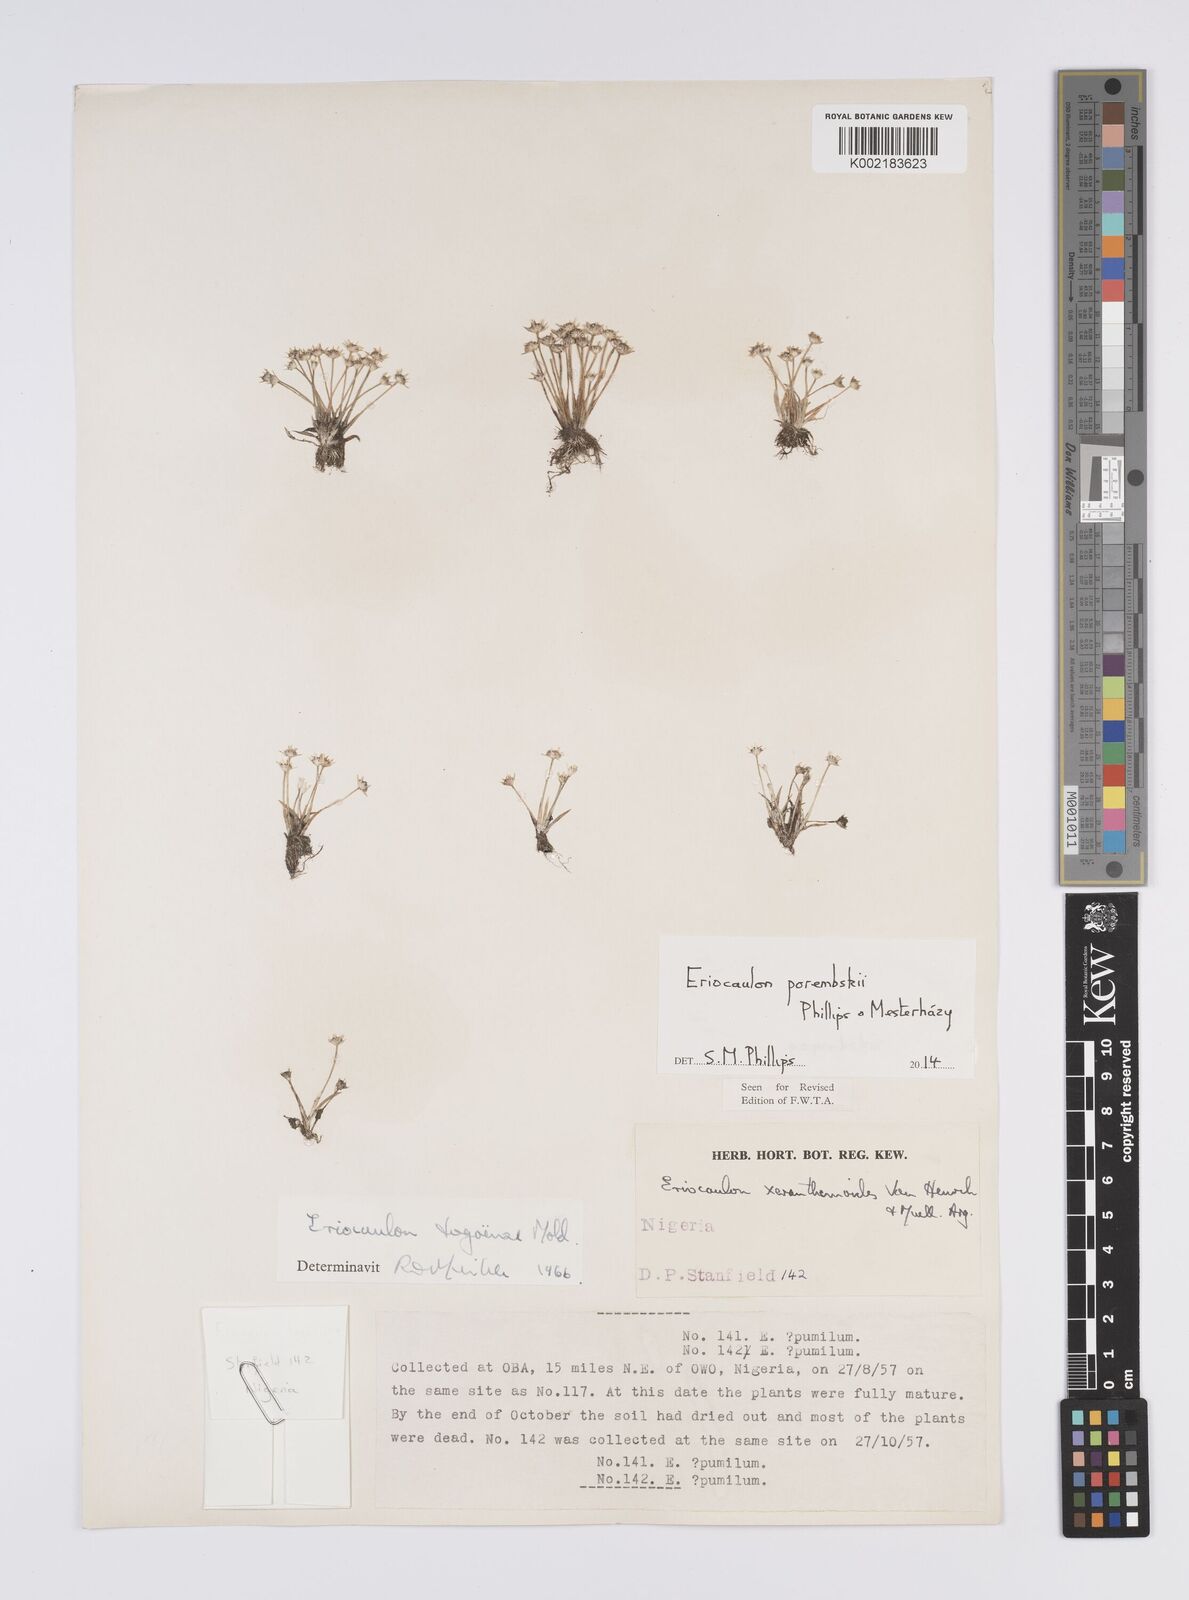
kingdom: Plantae
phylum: Tracheophyta
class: Liliopsida
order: Poales
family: Eriocaulaceae
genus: Eriocaulon
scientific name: Eriocaulon porembskii
